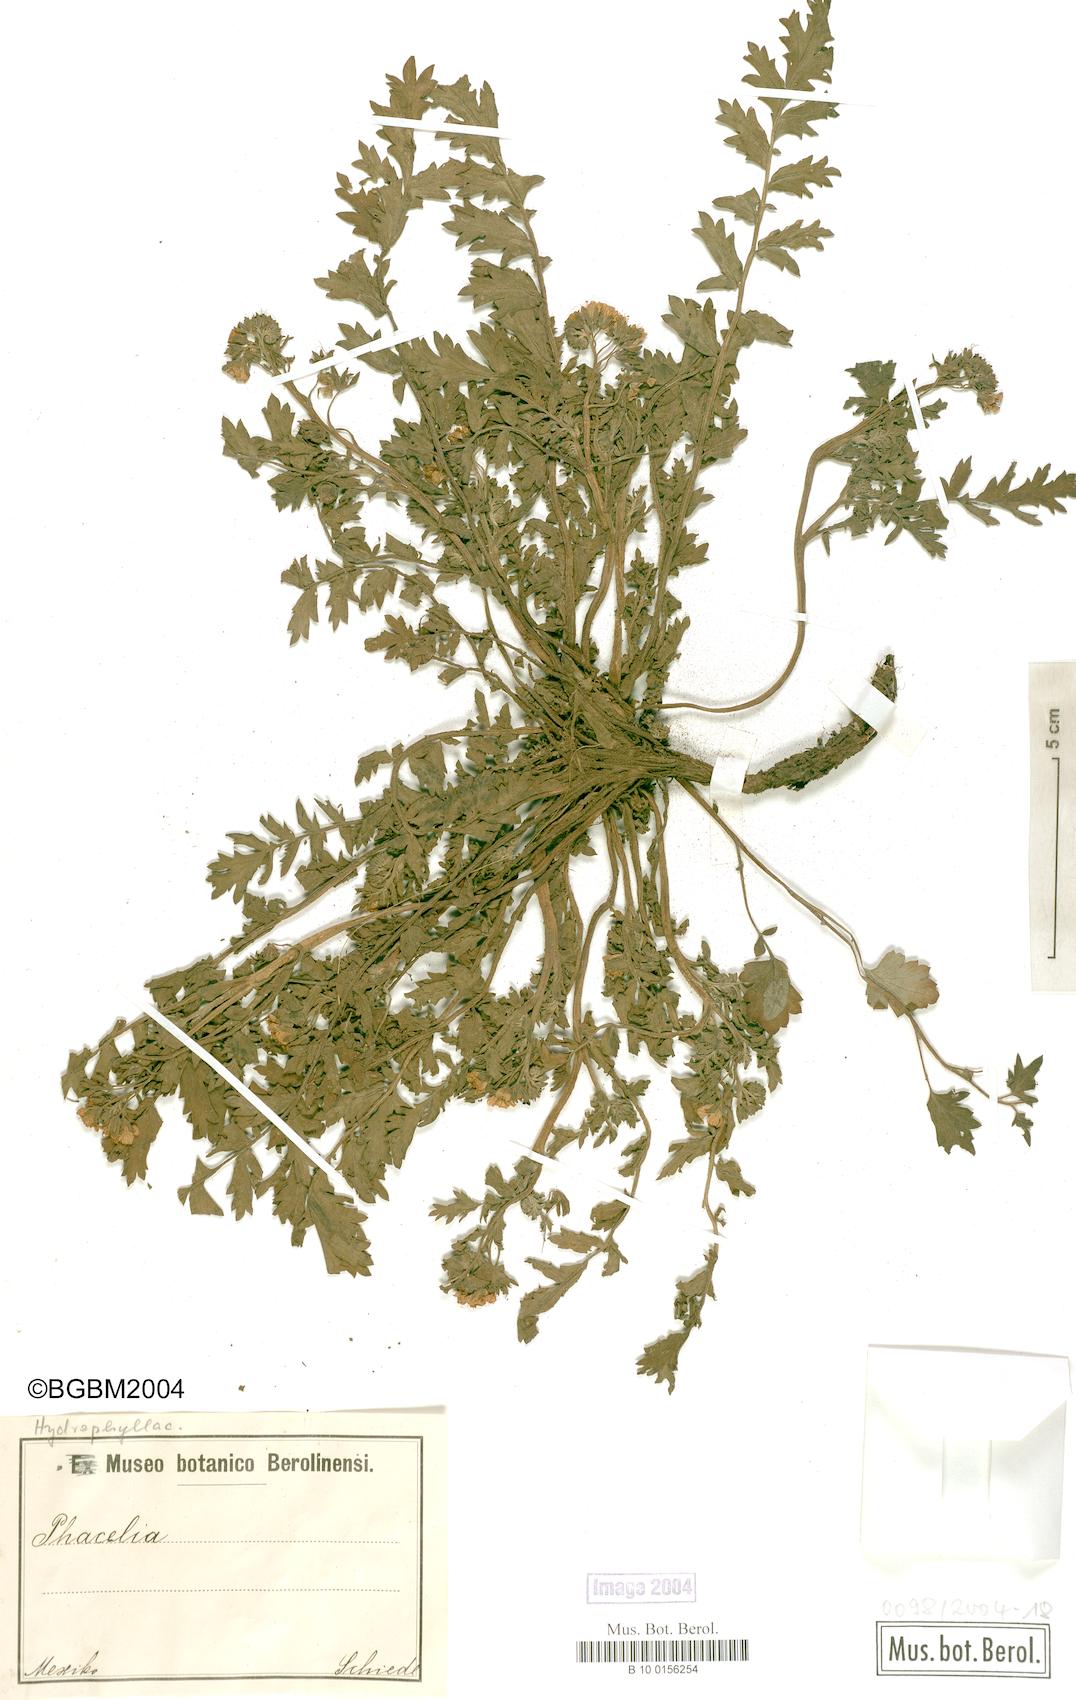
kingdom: Plantae
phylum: Tracheophyta
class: Magnoliopsida
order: Boraginales
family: Hydrophyllaceae
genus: Phacelia
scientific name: Phacelia
